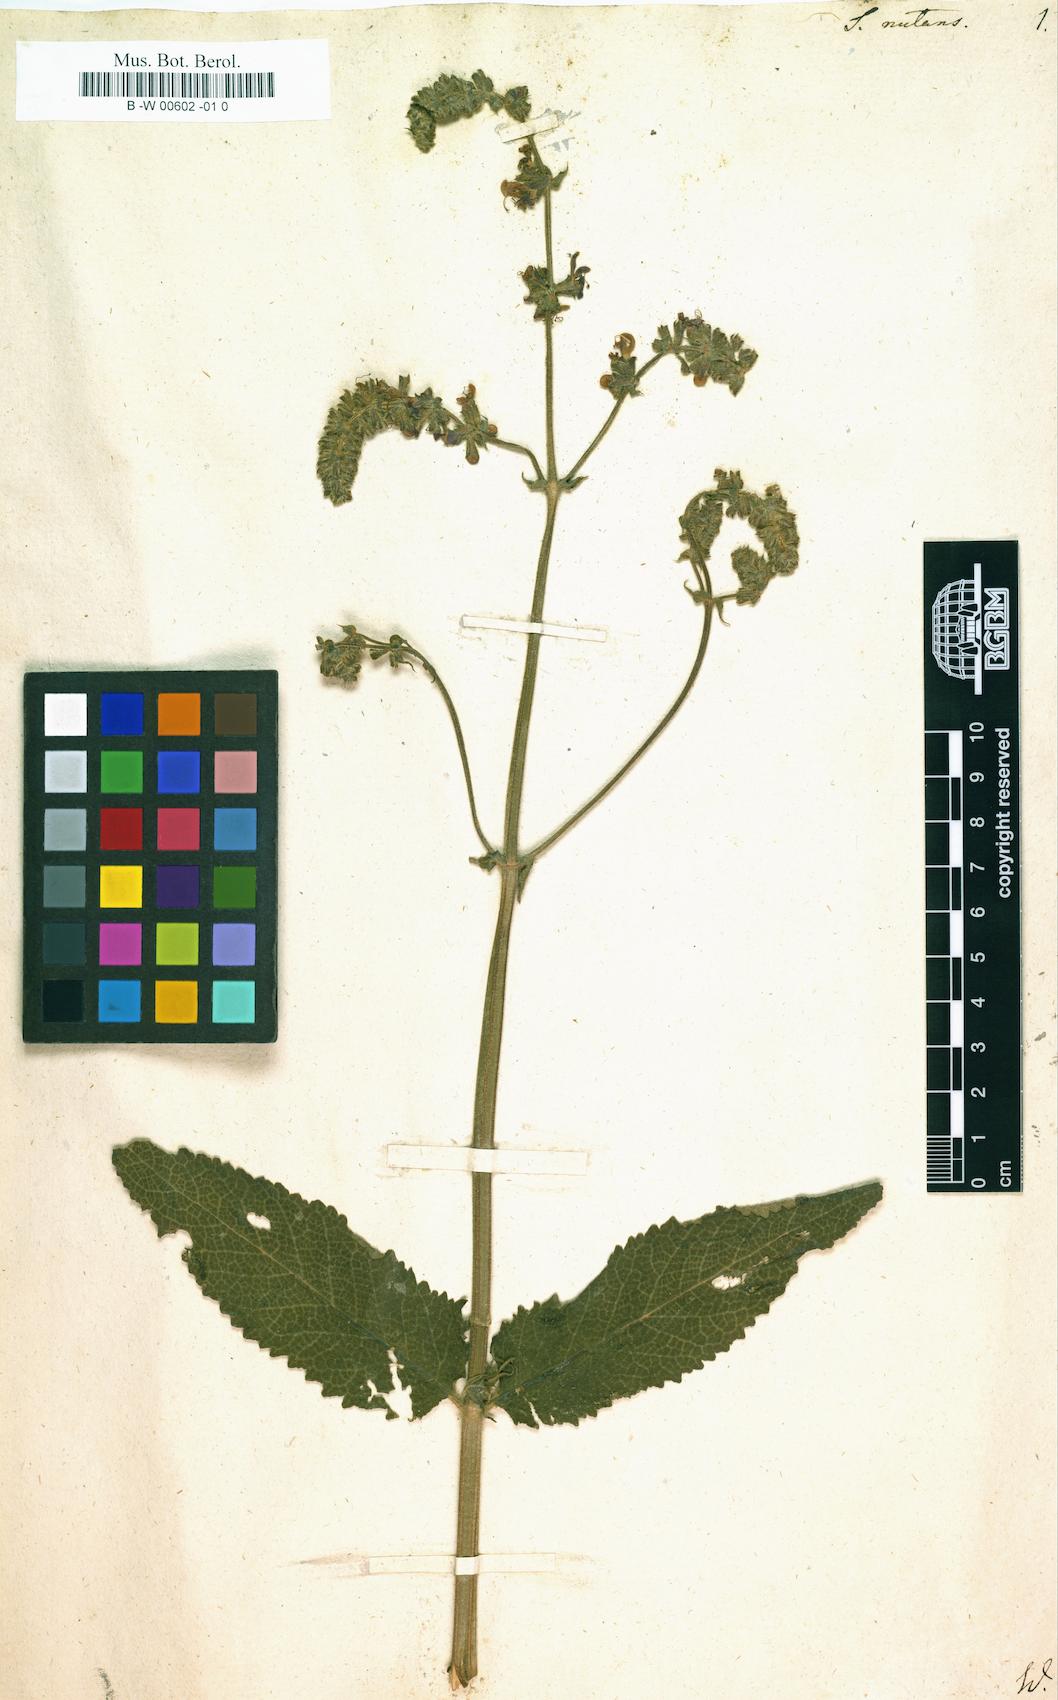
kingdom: Plantae
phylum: Tracheophyta
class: Magnoliopsida
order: Lamiales
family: Lamiaceae
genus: Salvia
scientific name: Salvia nutans
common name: Nodding sage
